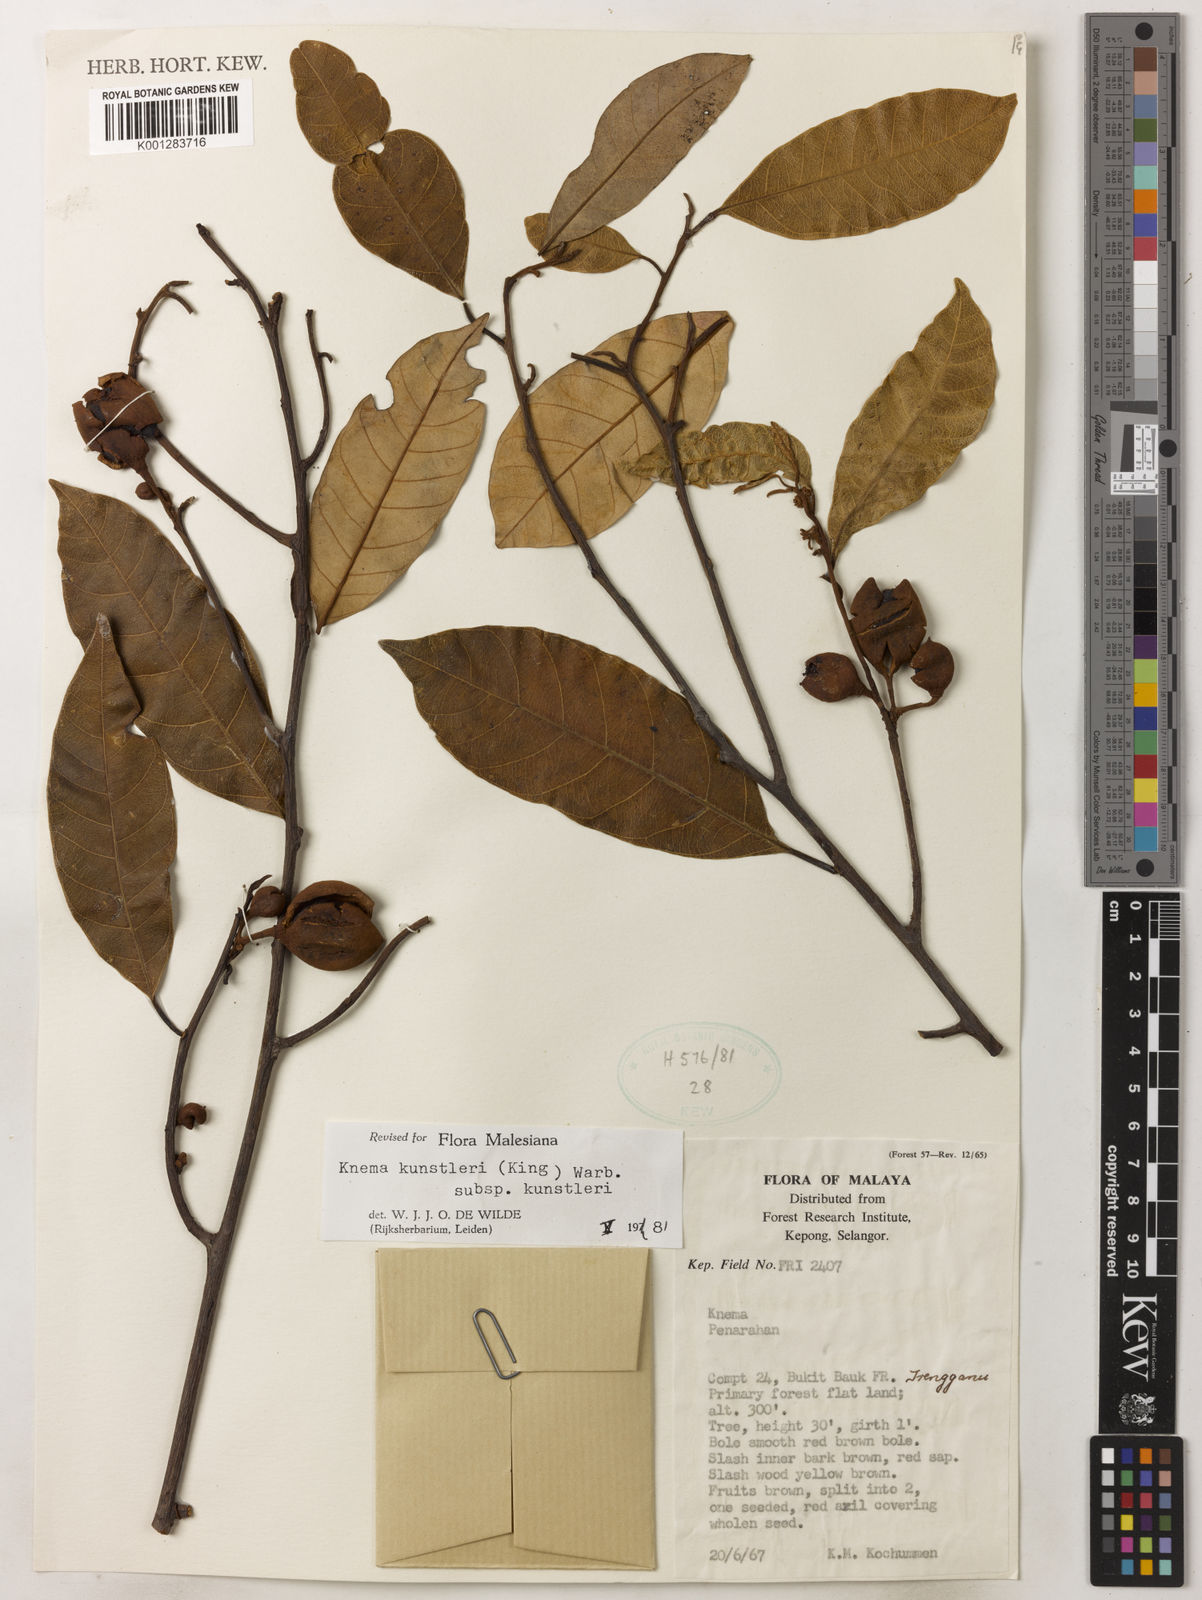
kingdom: Plantae
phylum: Tracheophyta
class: Magnoliopsida
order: Magnoliales
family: Myristicaceae
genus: Knema
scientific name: Knema kunstleri
